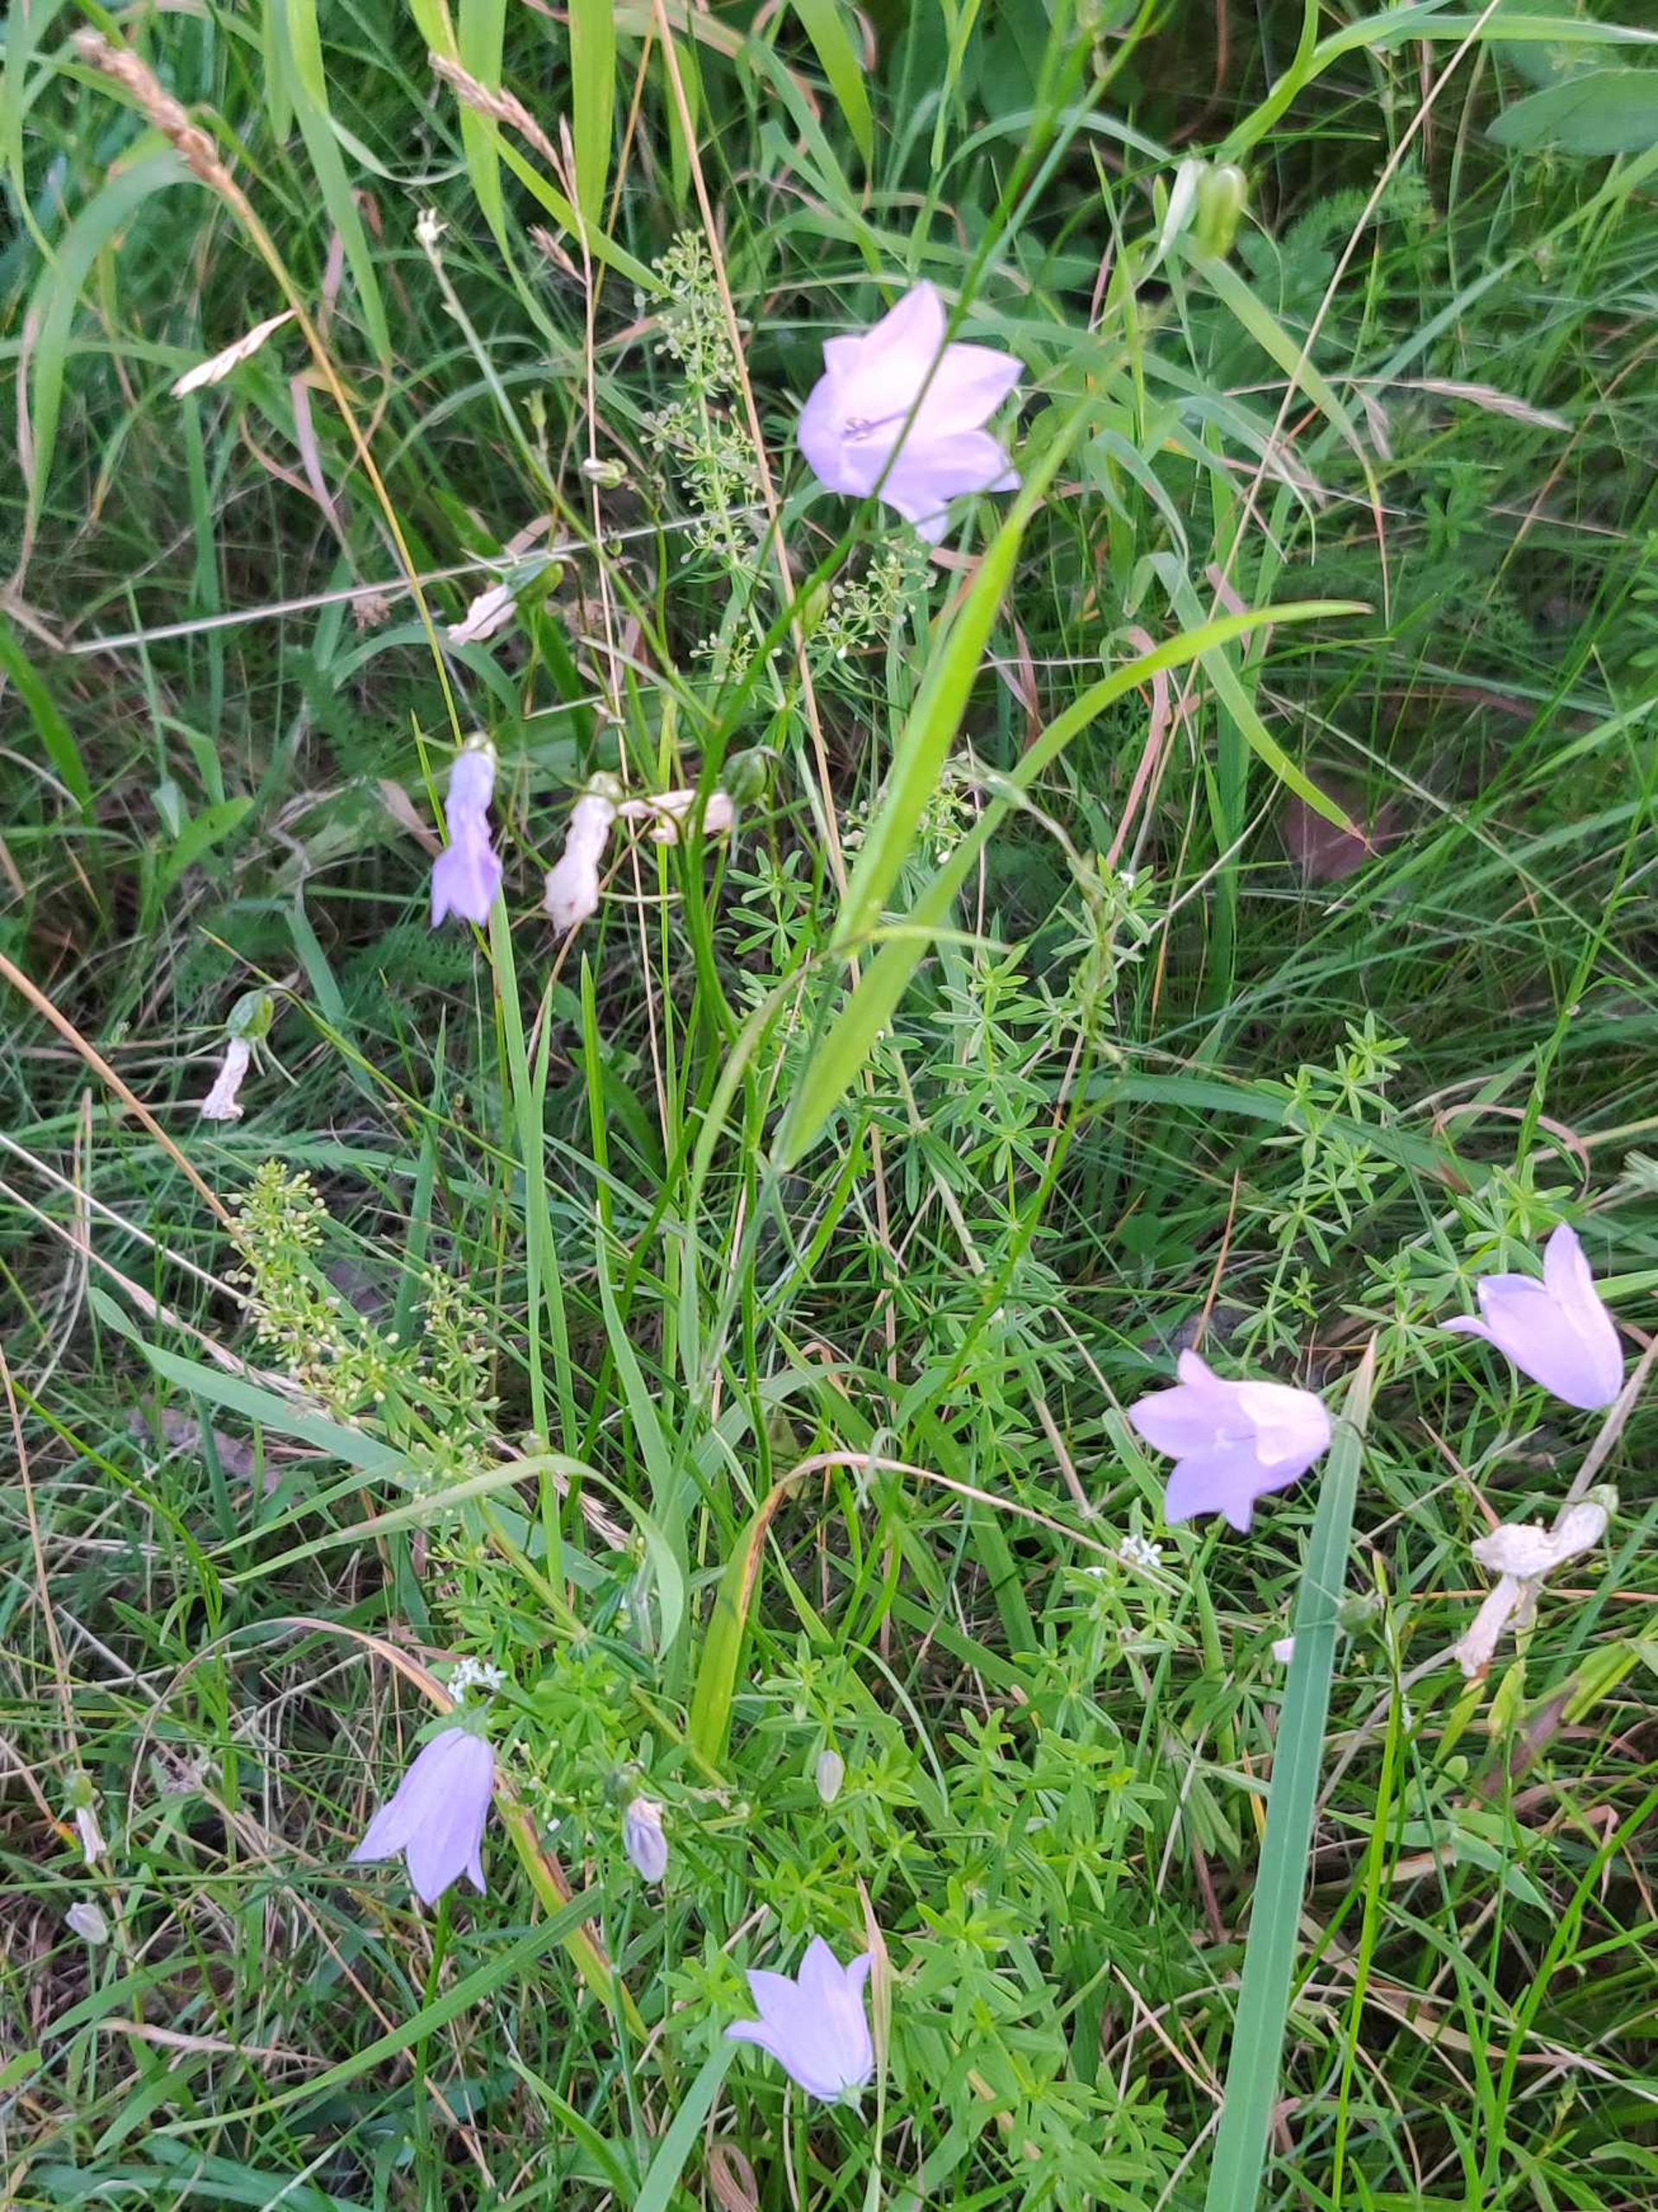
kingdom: Plantae
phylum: Tracheophyta
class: Magnoliopsida
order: Asterales
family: Campanulaceae
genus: Campanula
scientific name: Campanula rotundifolia
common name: Liden klokke
